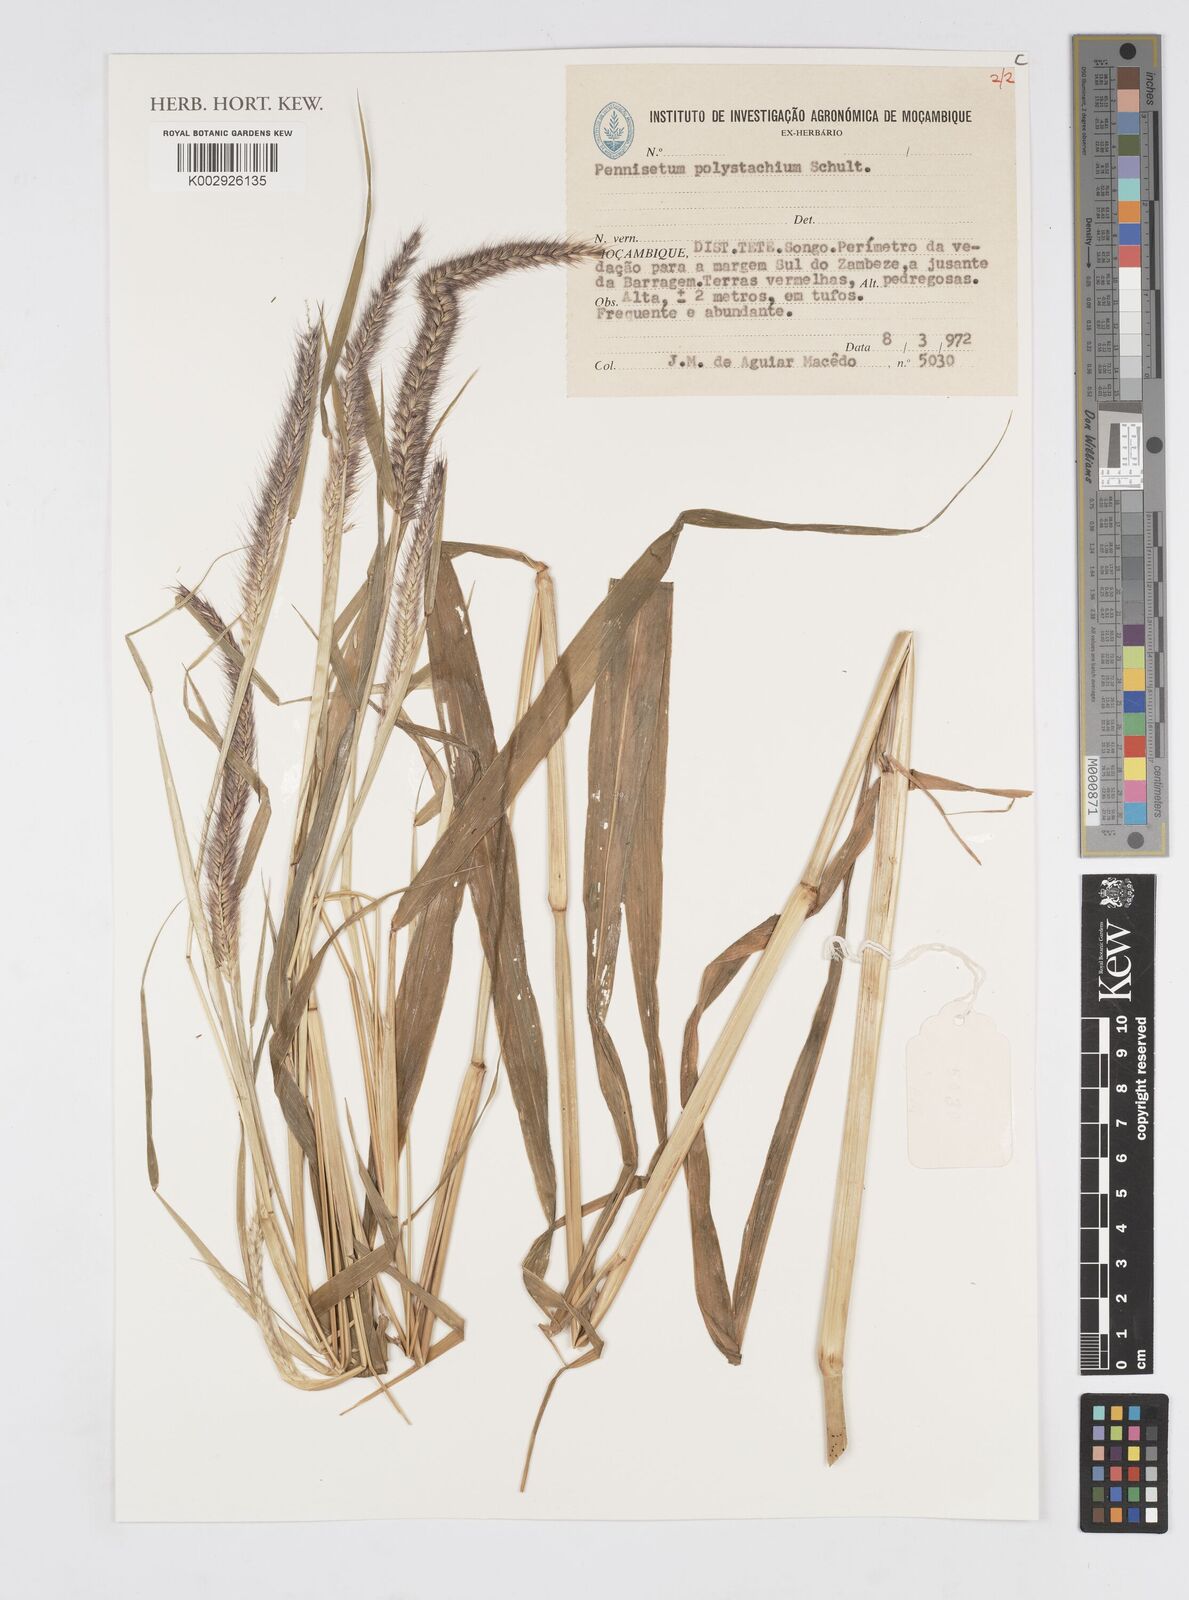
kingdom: Plantae
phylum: Tracheophyta
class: Liliopsida
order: Poales
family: Poaceae
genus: Setaria
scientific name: Setaria parviflora
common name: Knotroot bristle-grass
